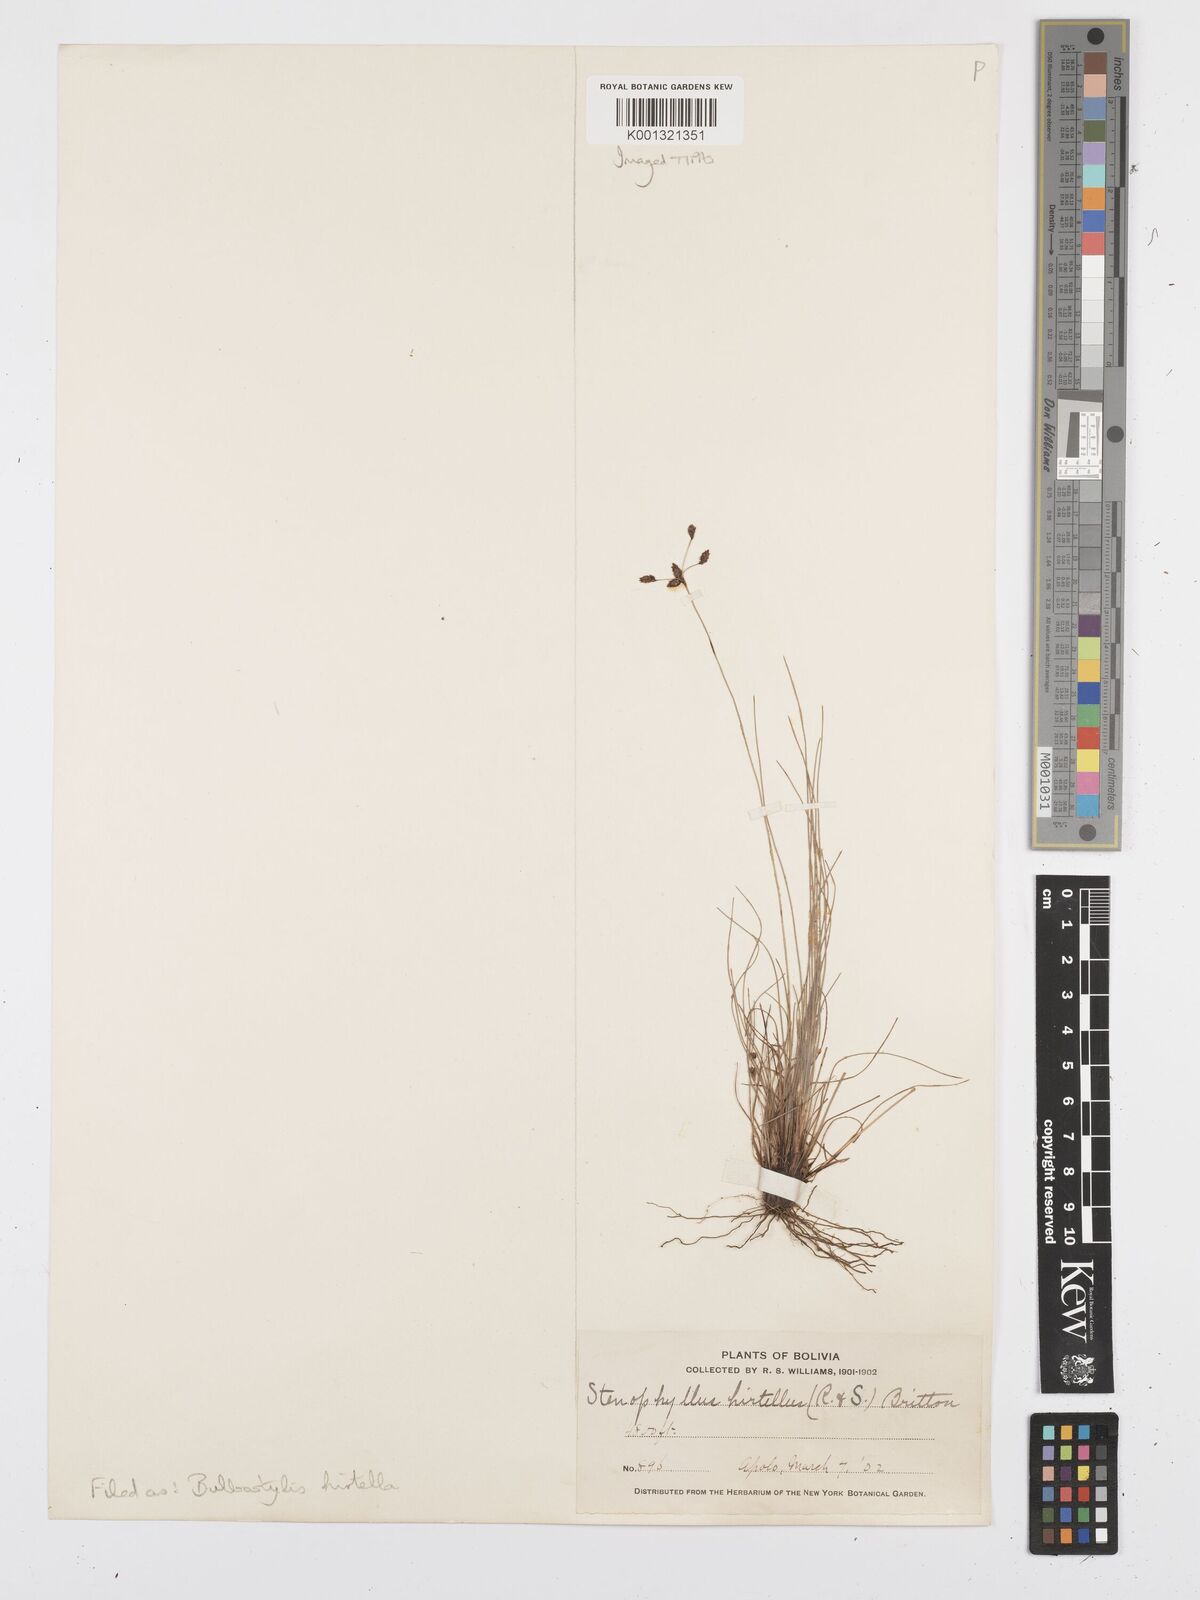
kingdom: Plantae
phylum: Tracheophyta
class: Liliopsida
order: Poales
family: Cyperaceae
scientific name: Cyperaceae
